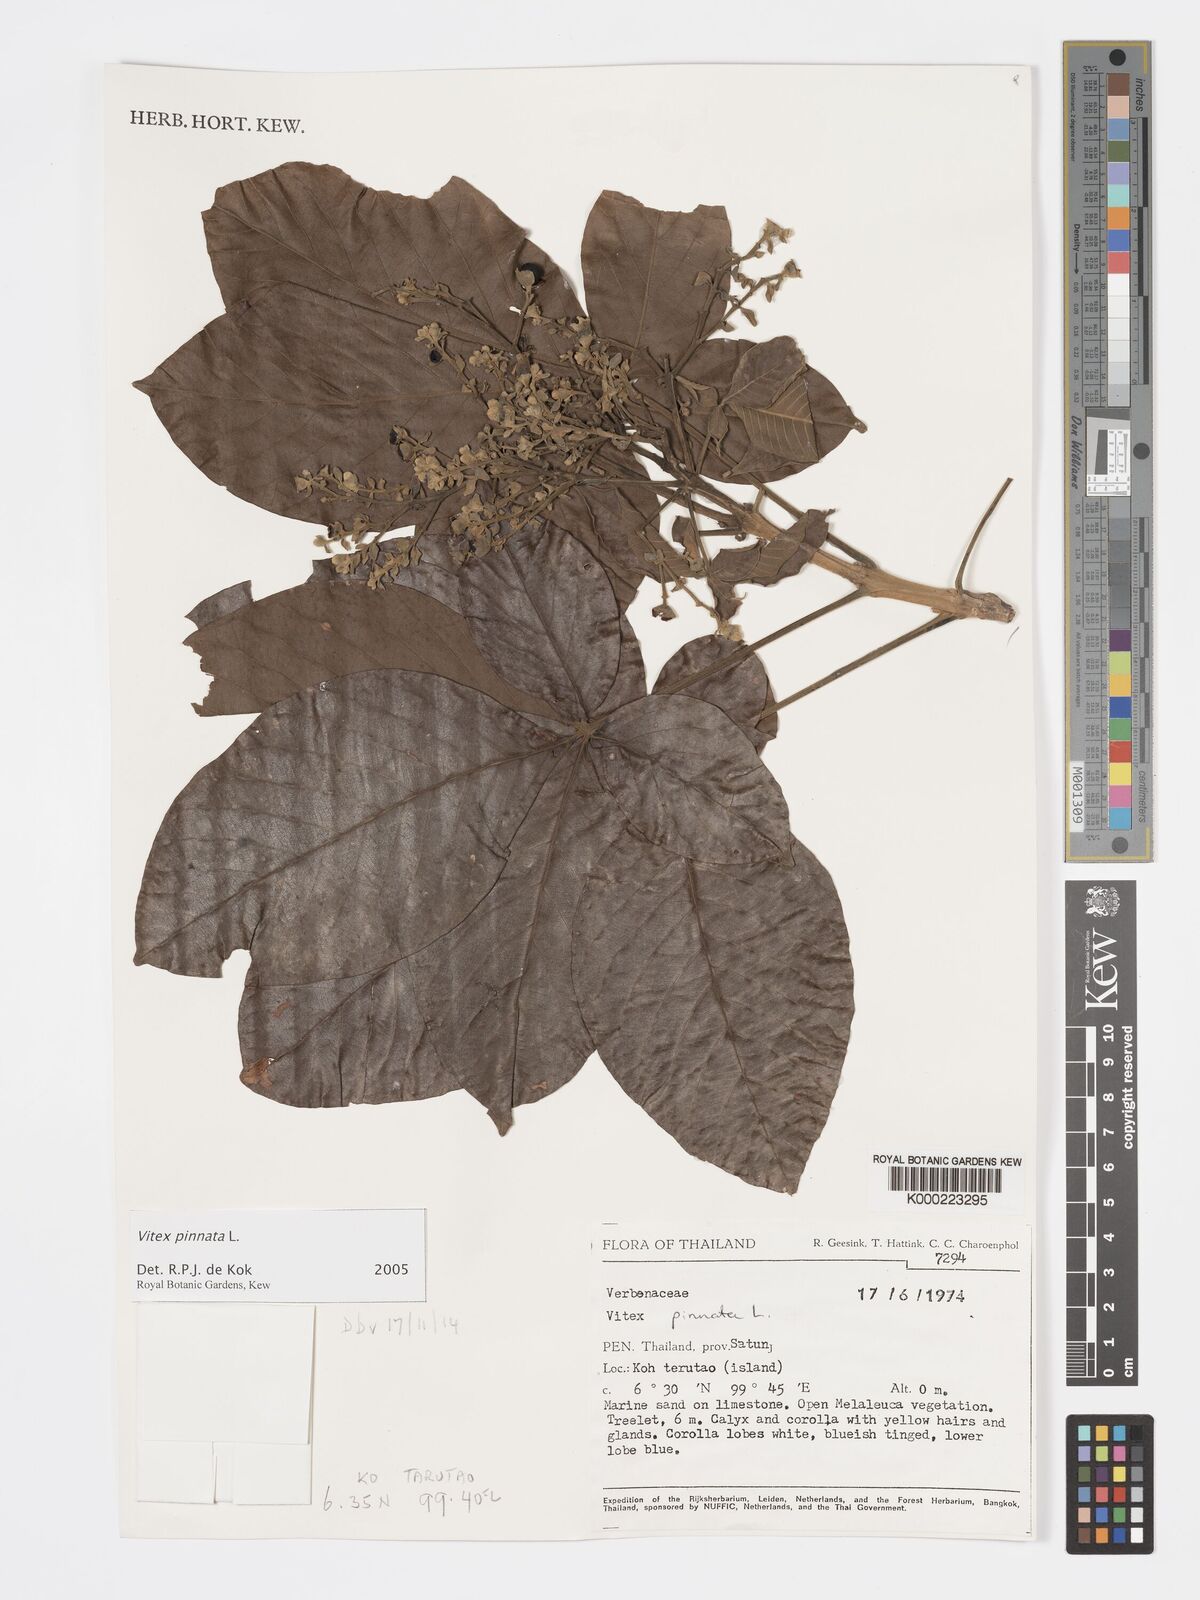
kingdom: Plantae
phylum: Tracheophyta
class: Magnoliopsida
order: Lamiales
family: Lamiaceae
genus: Vitex
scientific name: Vitex pinnata
